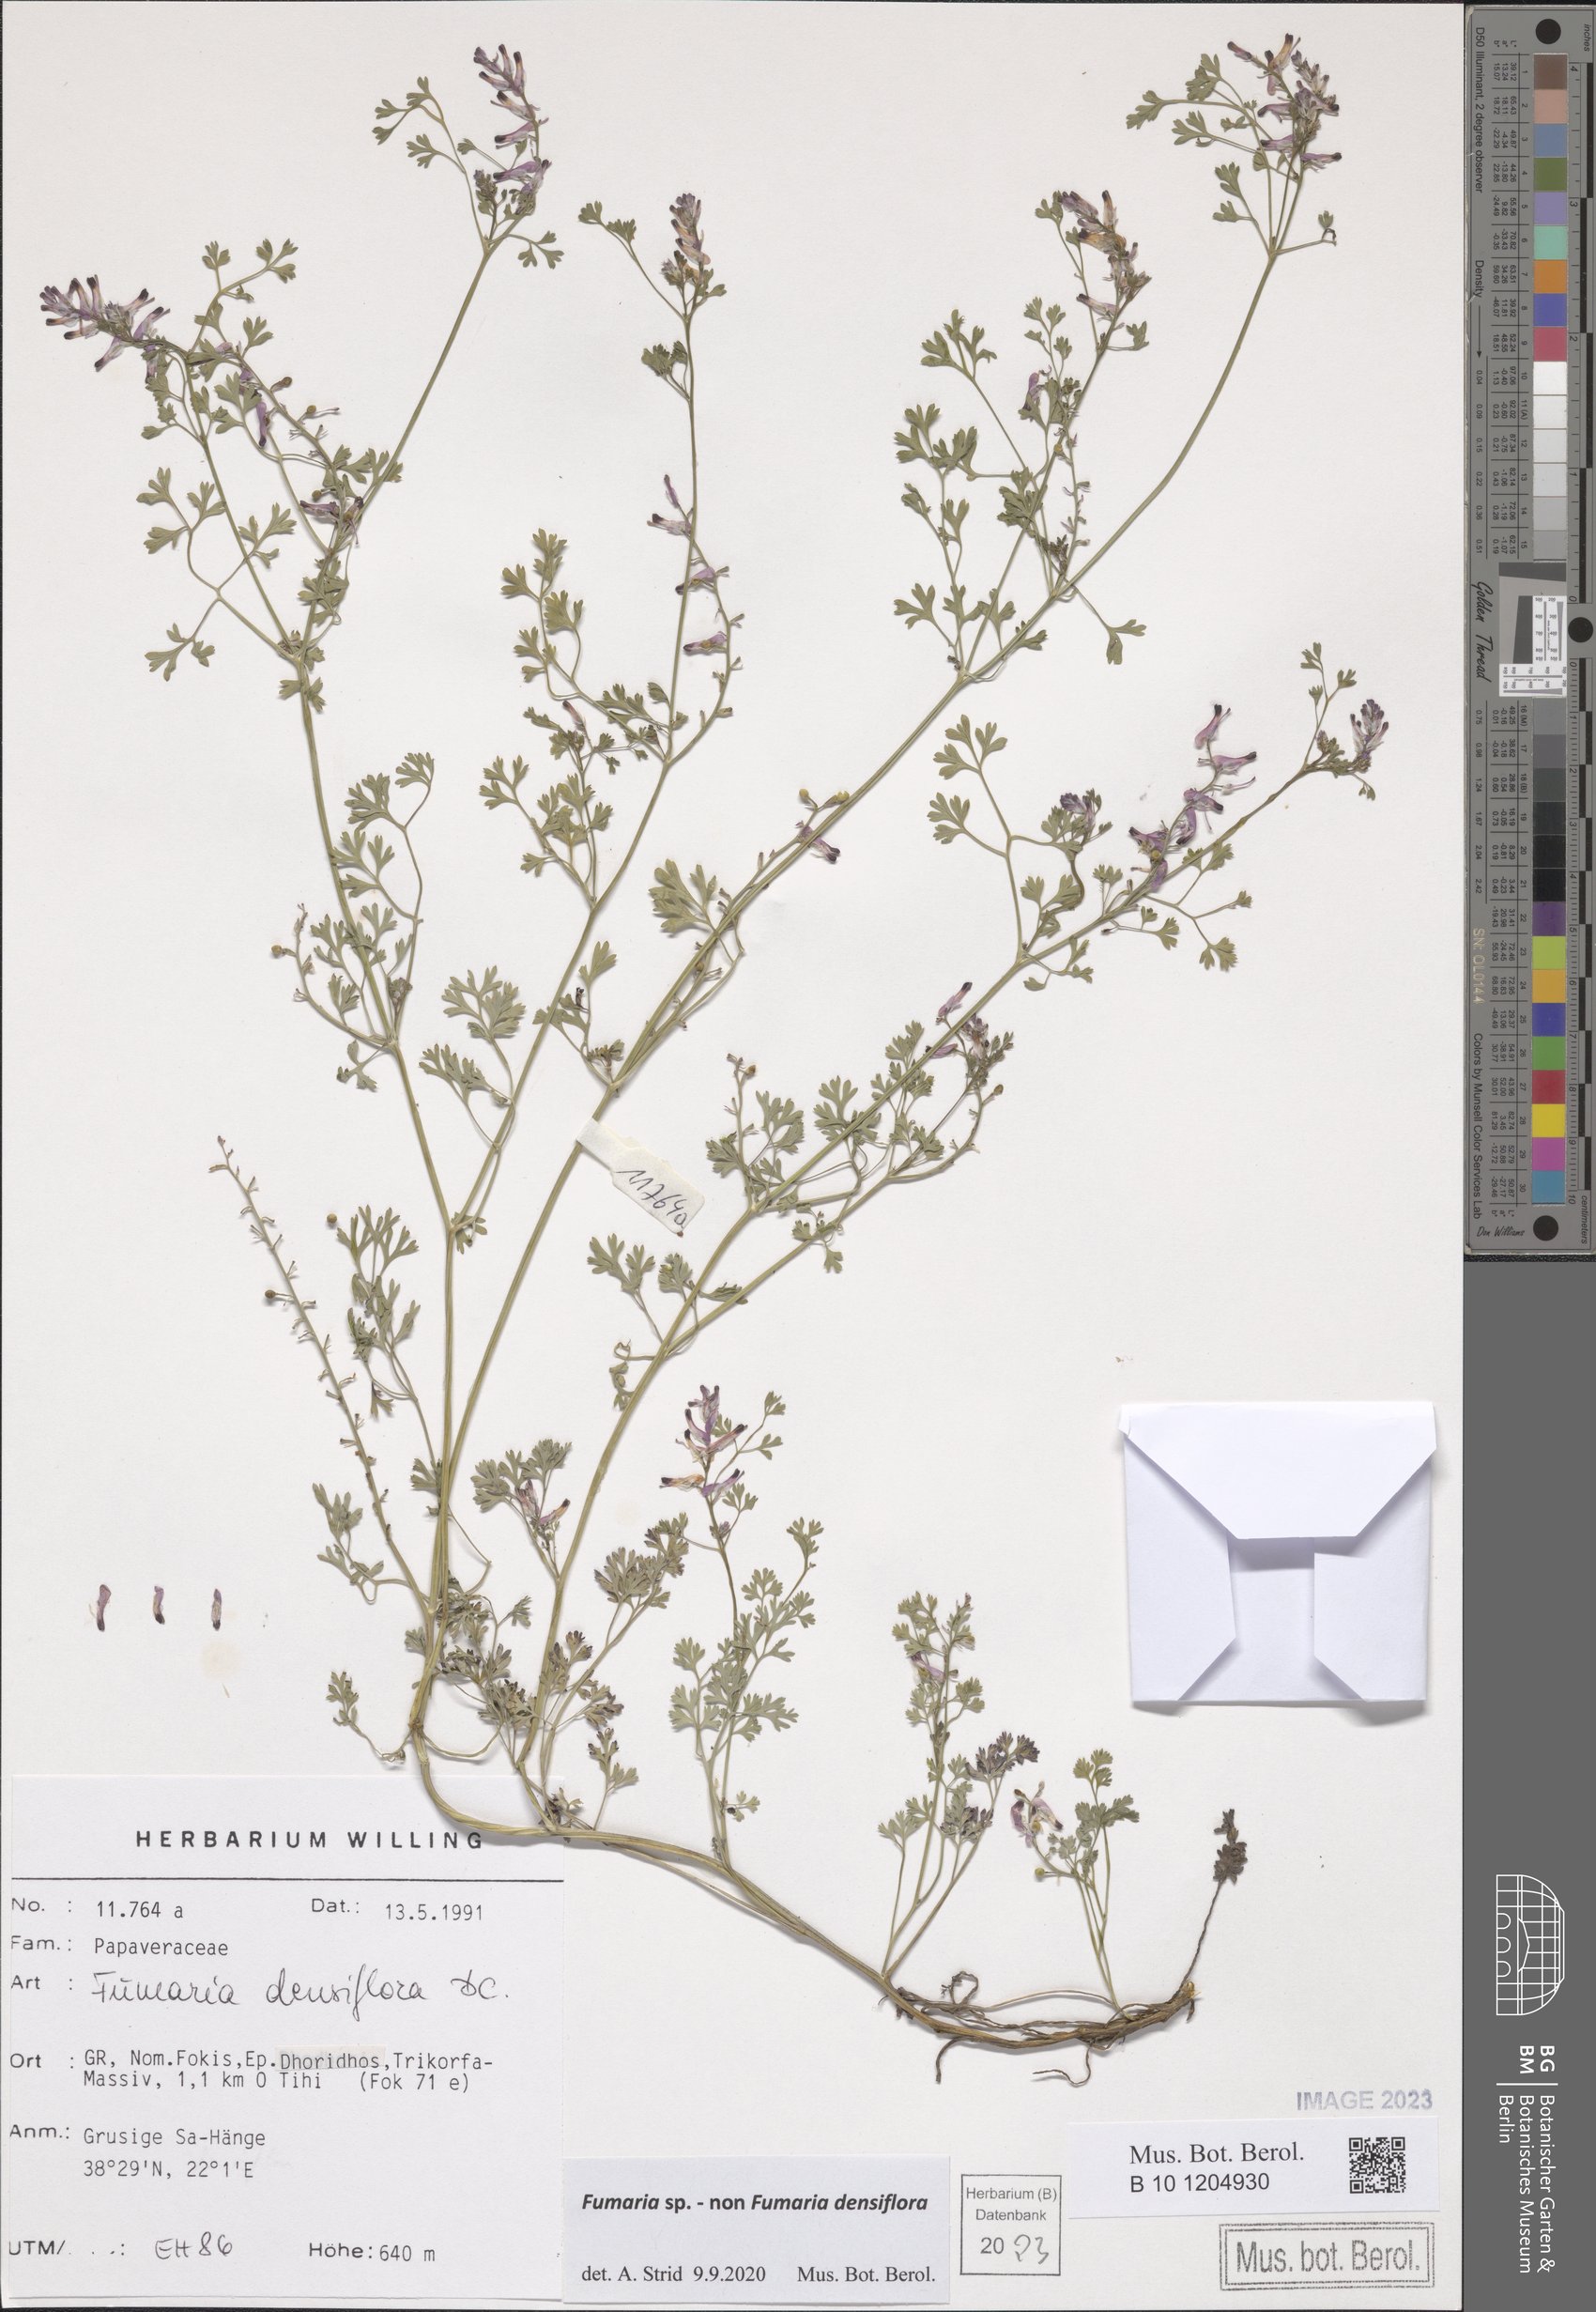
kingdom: Plantae
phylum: Tracheophyta
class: Magnoliopsida
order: Ranunculales
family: Papaveraceae
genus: Fumaria
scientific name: Fumaria
